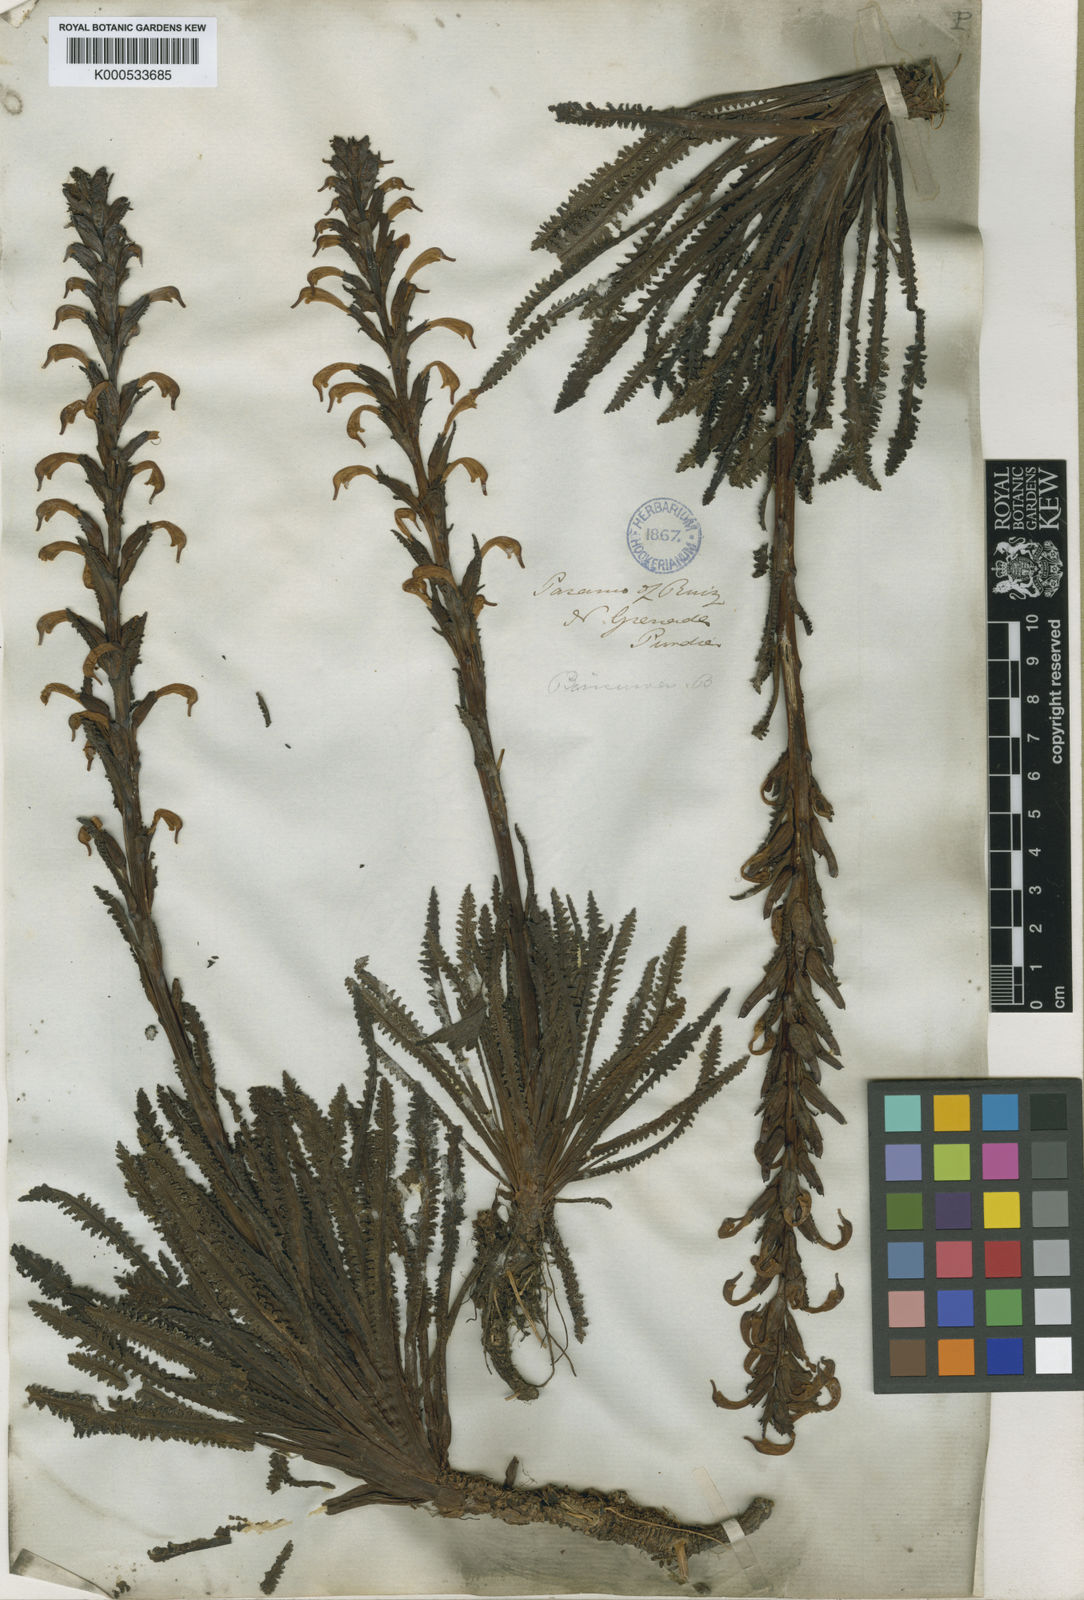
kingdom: Plantae
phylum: Tracheophyta
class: Magnoliopsida
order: Lamiales
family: Orobanchaceae
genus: Pedicularis
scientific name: Pedicularis incurva
